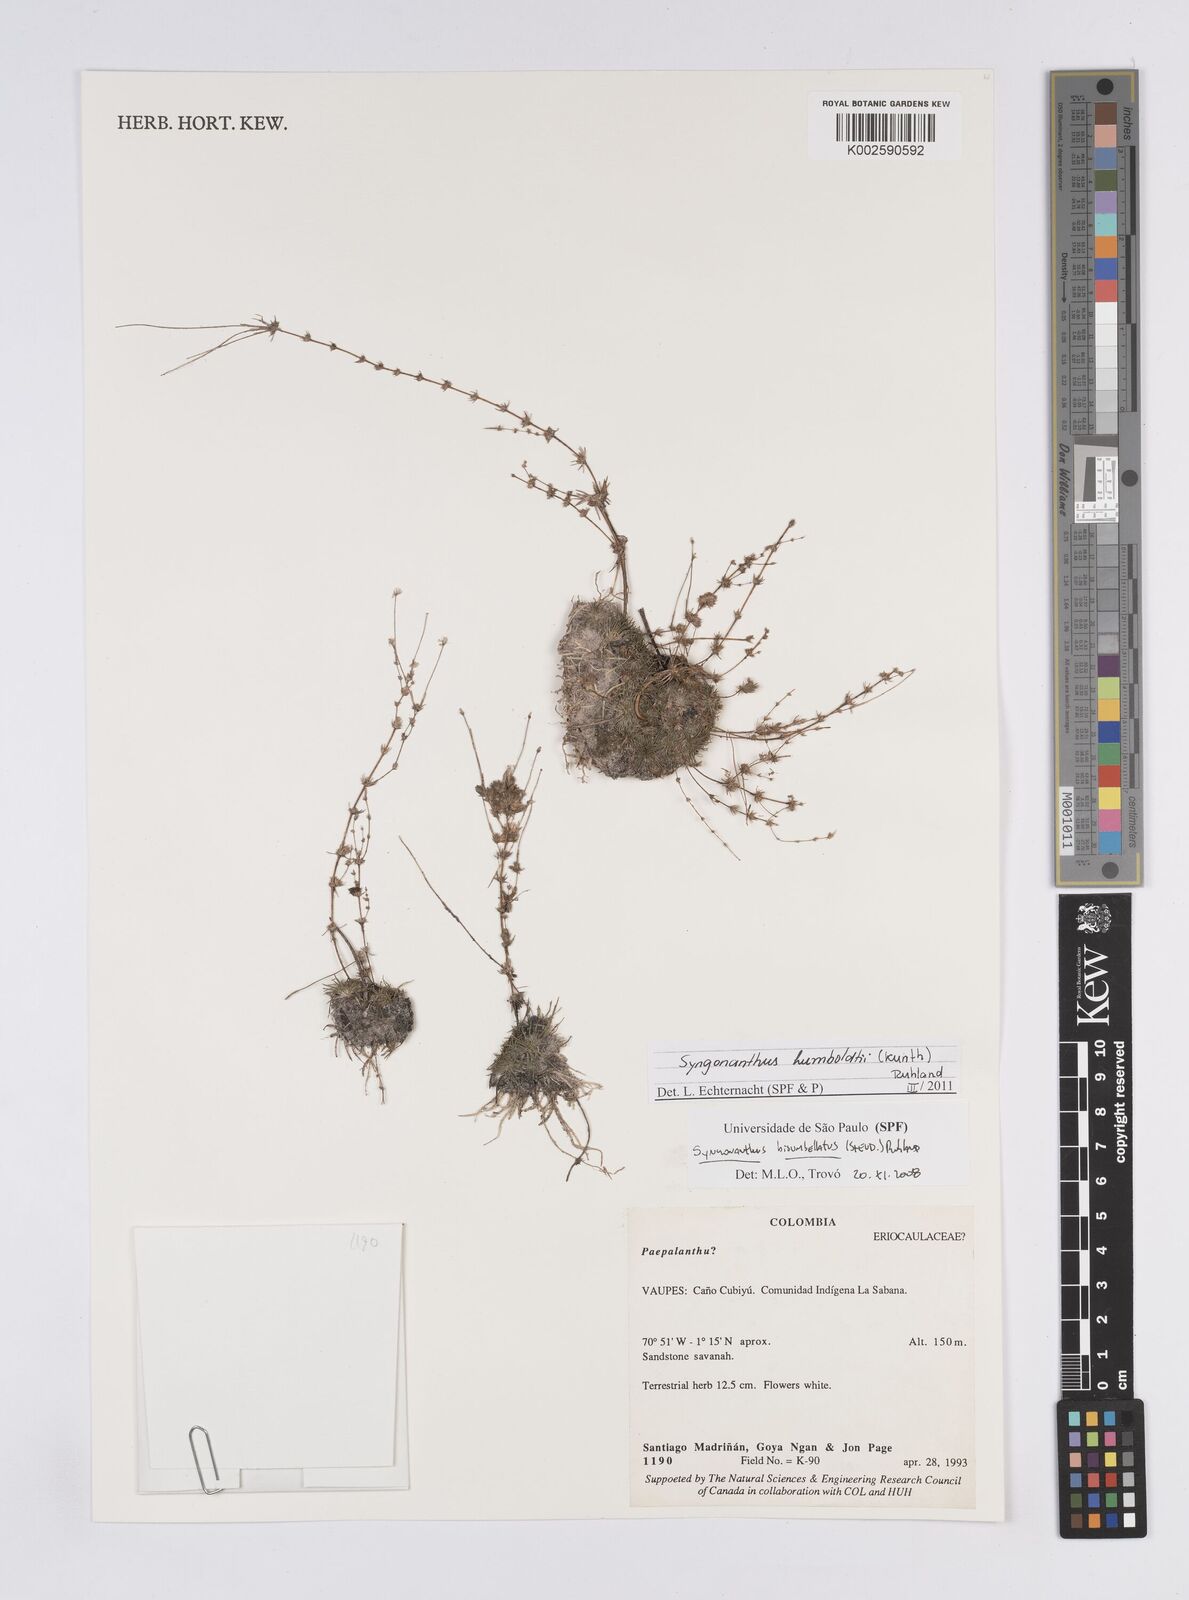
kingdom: Plantae
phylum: Tracheophyta
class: Liliopsida
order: Poales
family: Eriocaulaceae
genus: Syngonanthus
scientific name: Syngonanthus humboldtii
